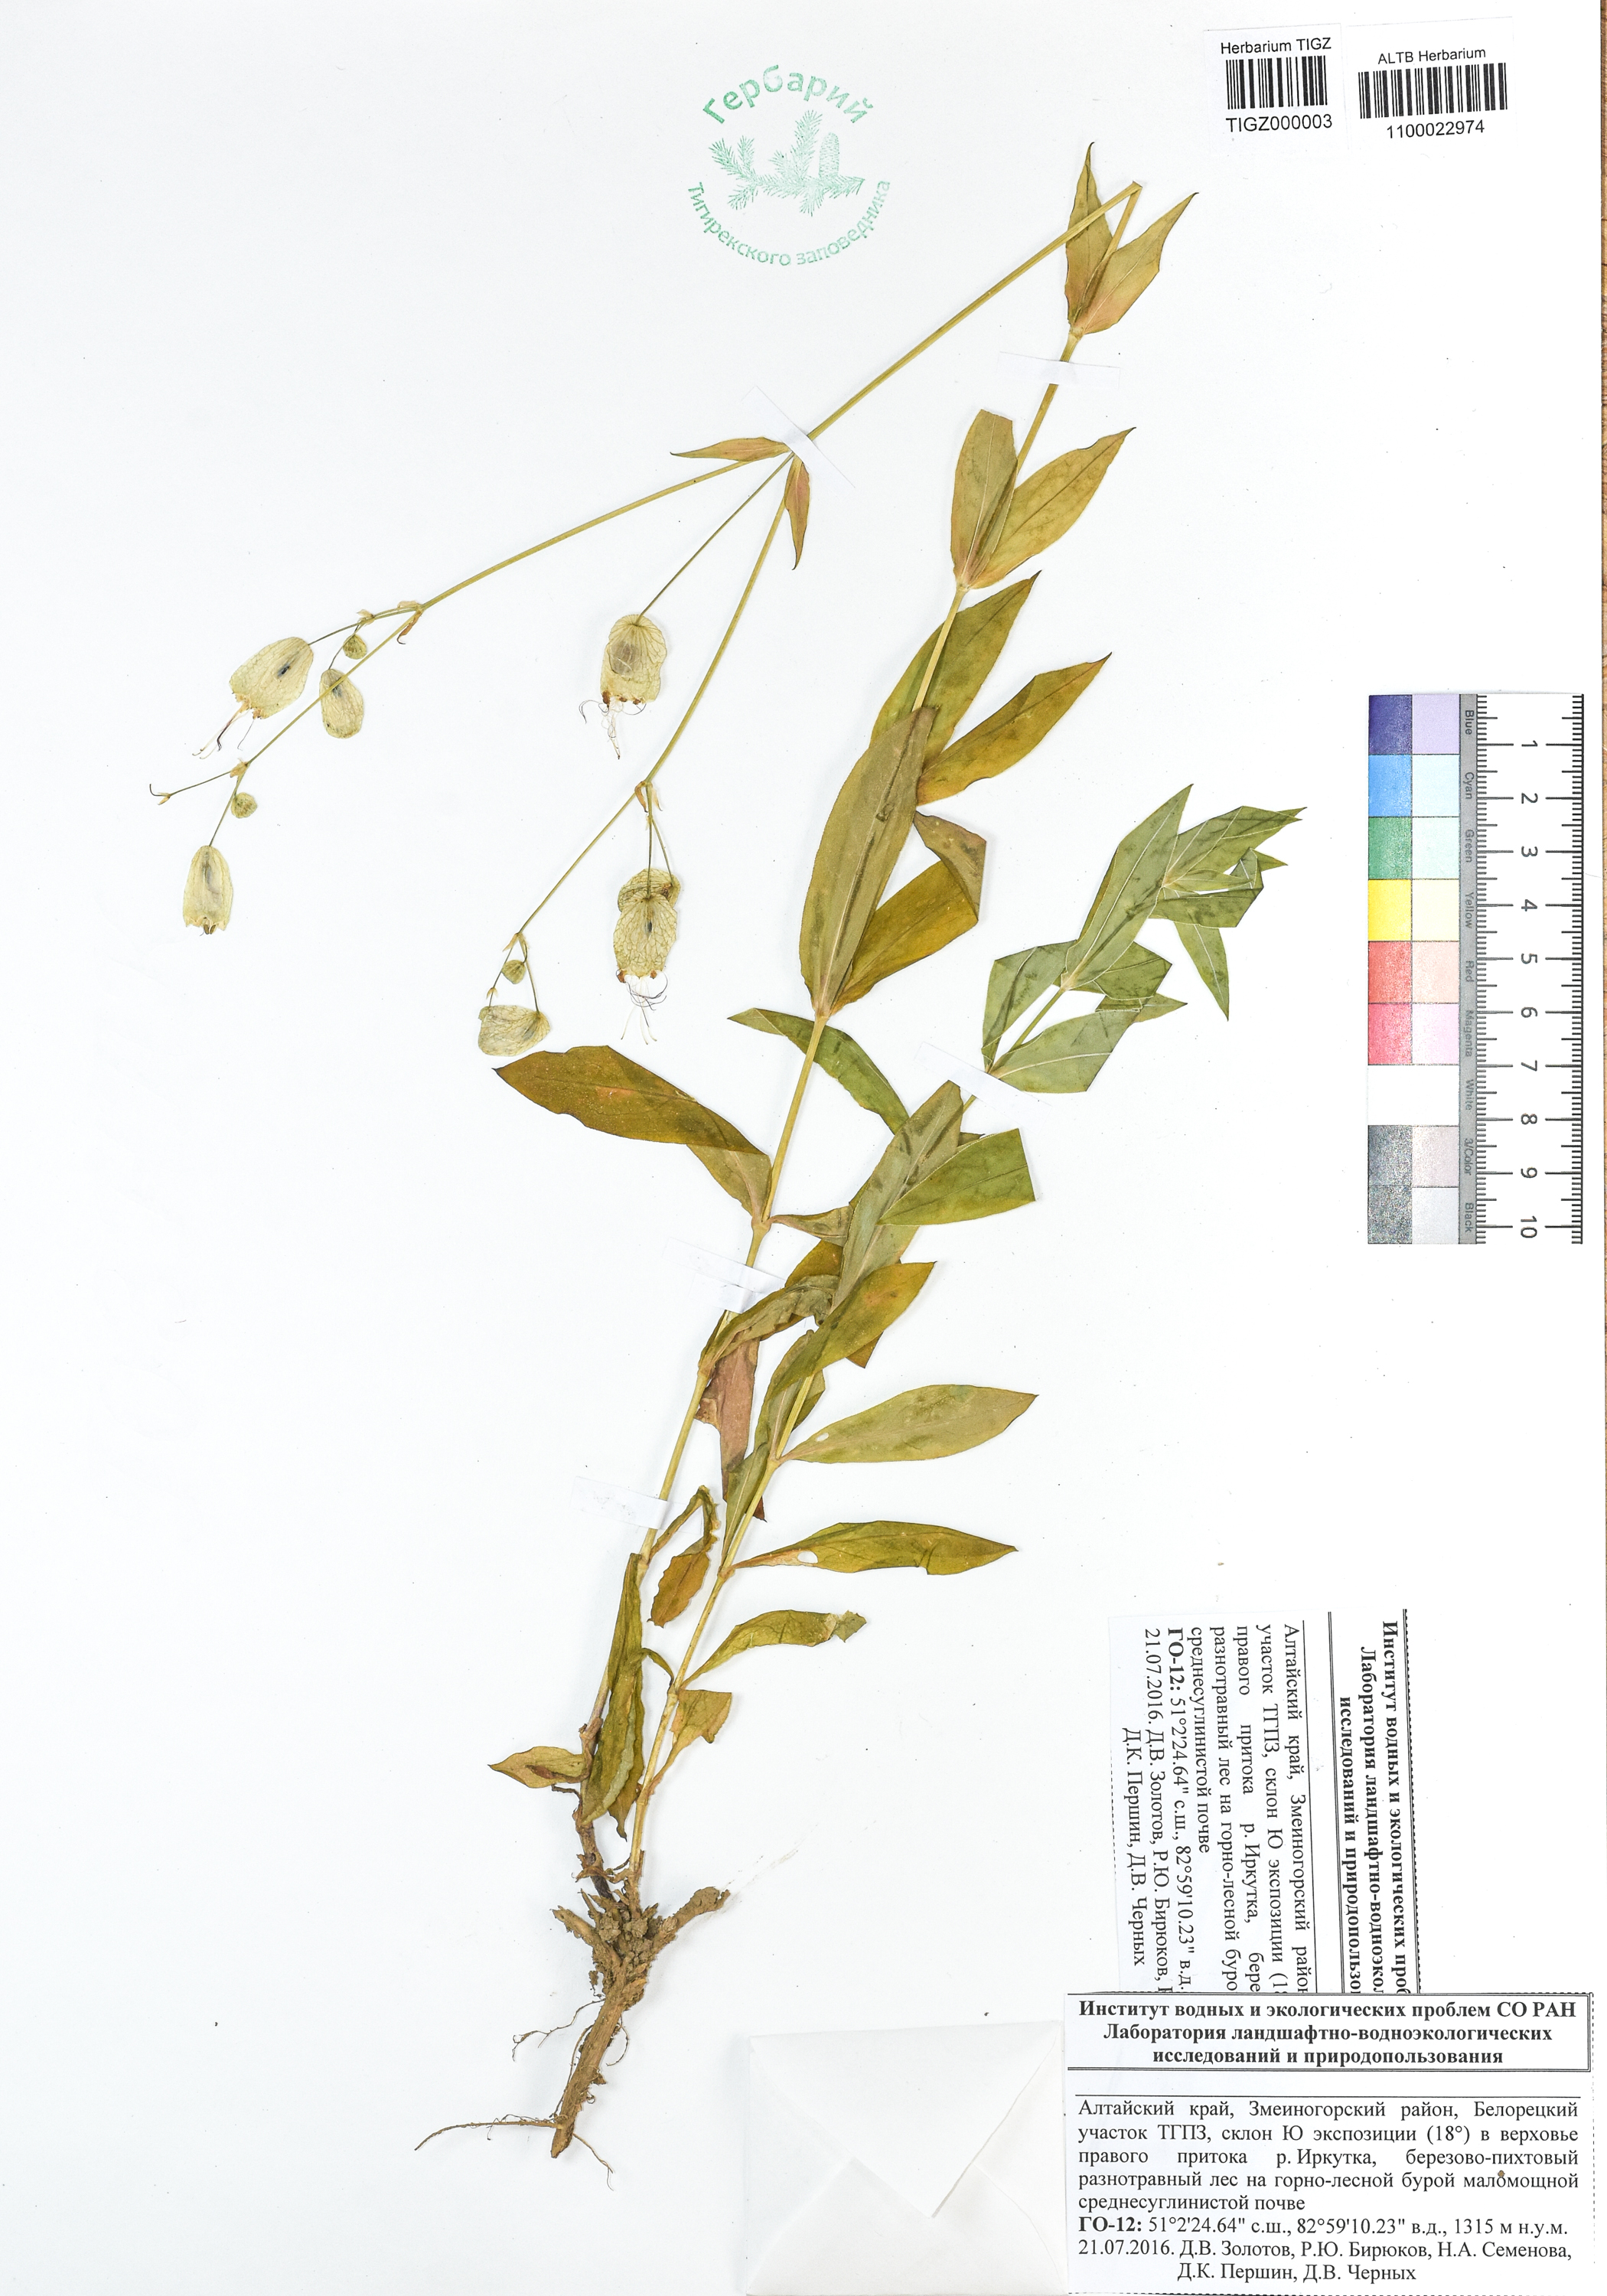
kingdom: Plantae
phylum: Tracheophyta
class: Magnoliopsida
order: Caryophyllales
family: Caryophyllaceae
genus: Silene
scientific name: Silene vulgaris
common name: Bladder campion
